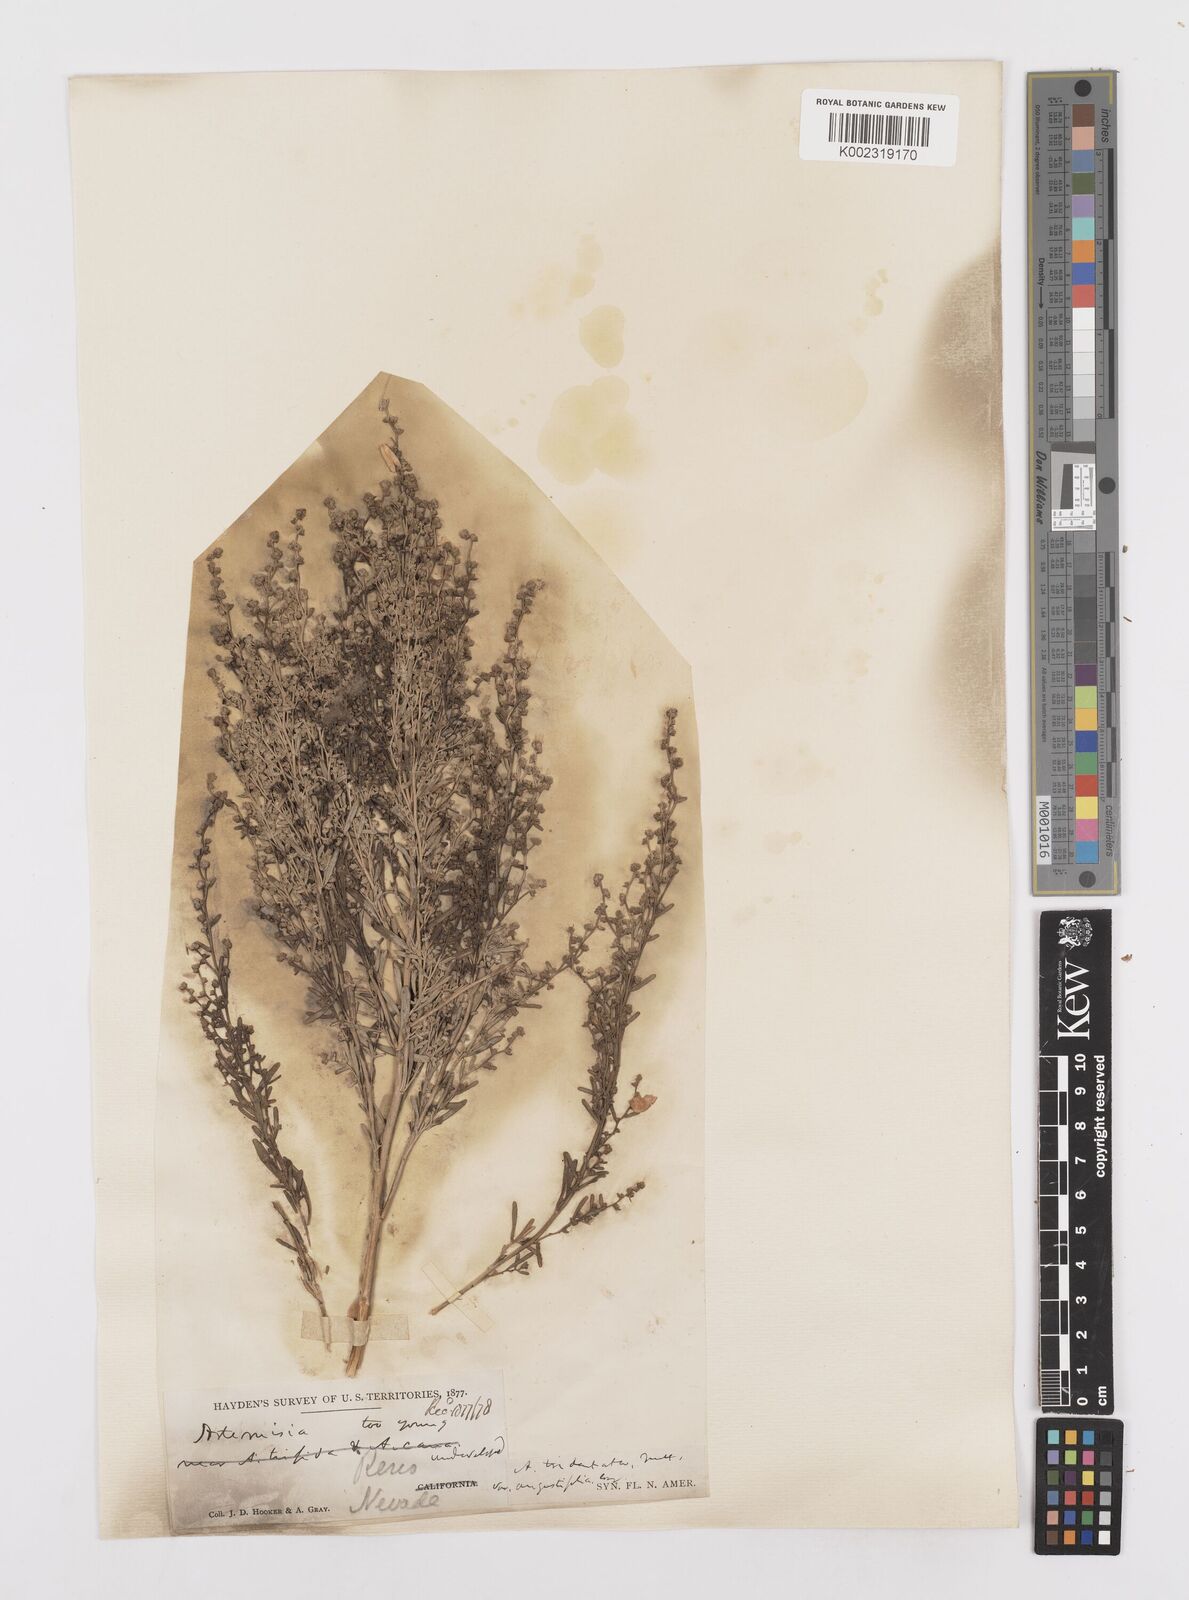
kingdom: Plantae
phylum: Tracheophyta
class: Magnoliopsida
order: Asterales
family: Asteraceae
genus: Artemisia
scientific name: Artemisia tridentata
